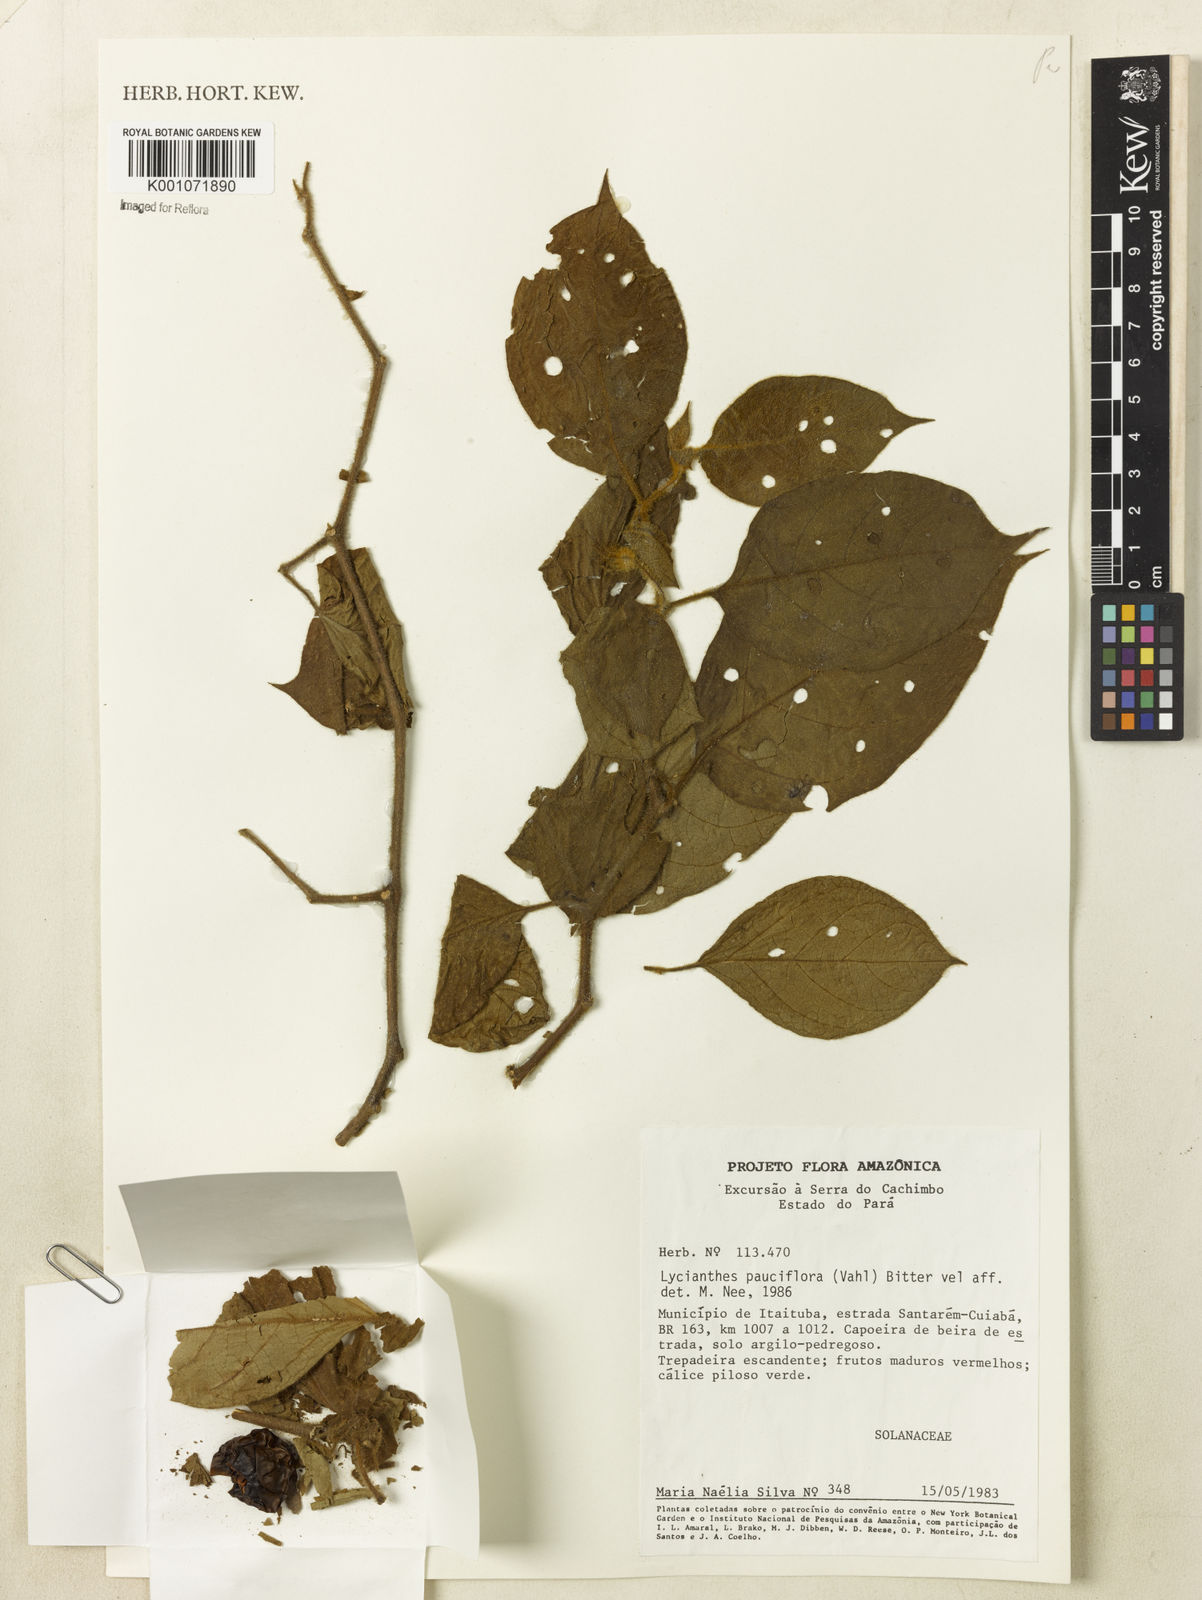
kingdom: Plantae
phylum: Tracheophyta
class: Magnoliopsida
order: Solanales
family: Solanaceae
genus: Lycianthes
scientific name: Lycianthes pauciflora
